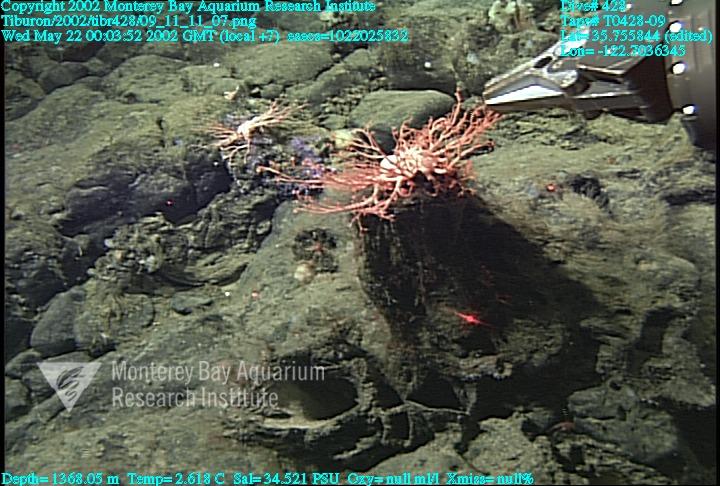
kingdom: Animalia
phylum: Porifera
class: Hexactinellida
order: Sceptrulophora
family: Euretidae
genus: Chonelasma
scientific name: Chonelasma
